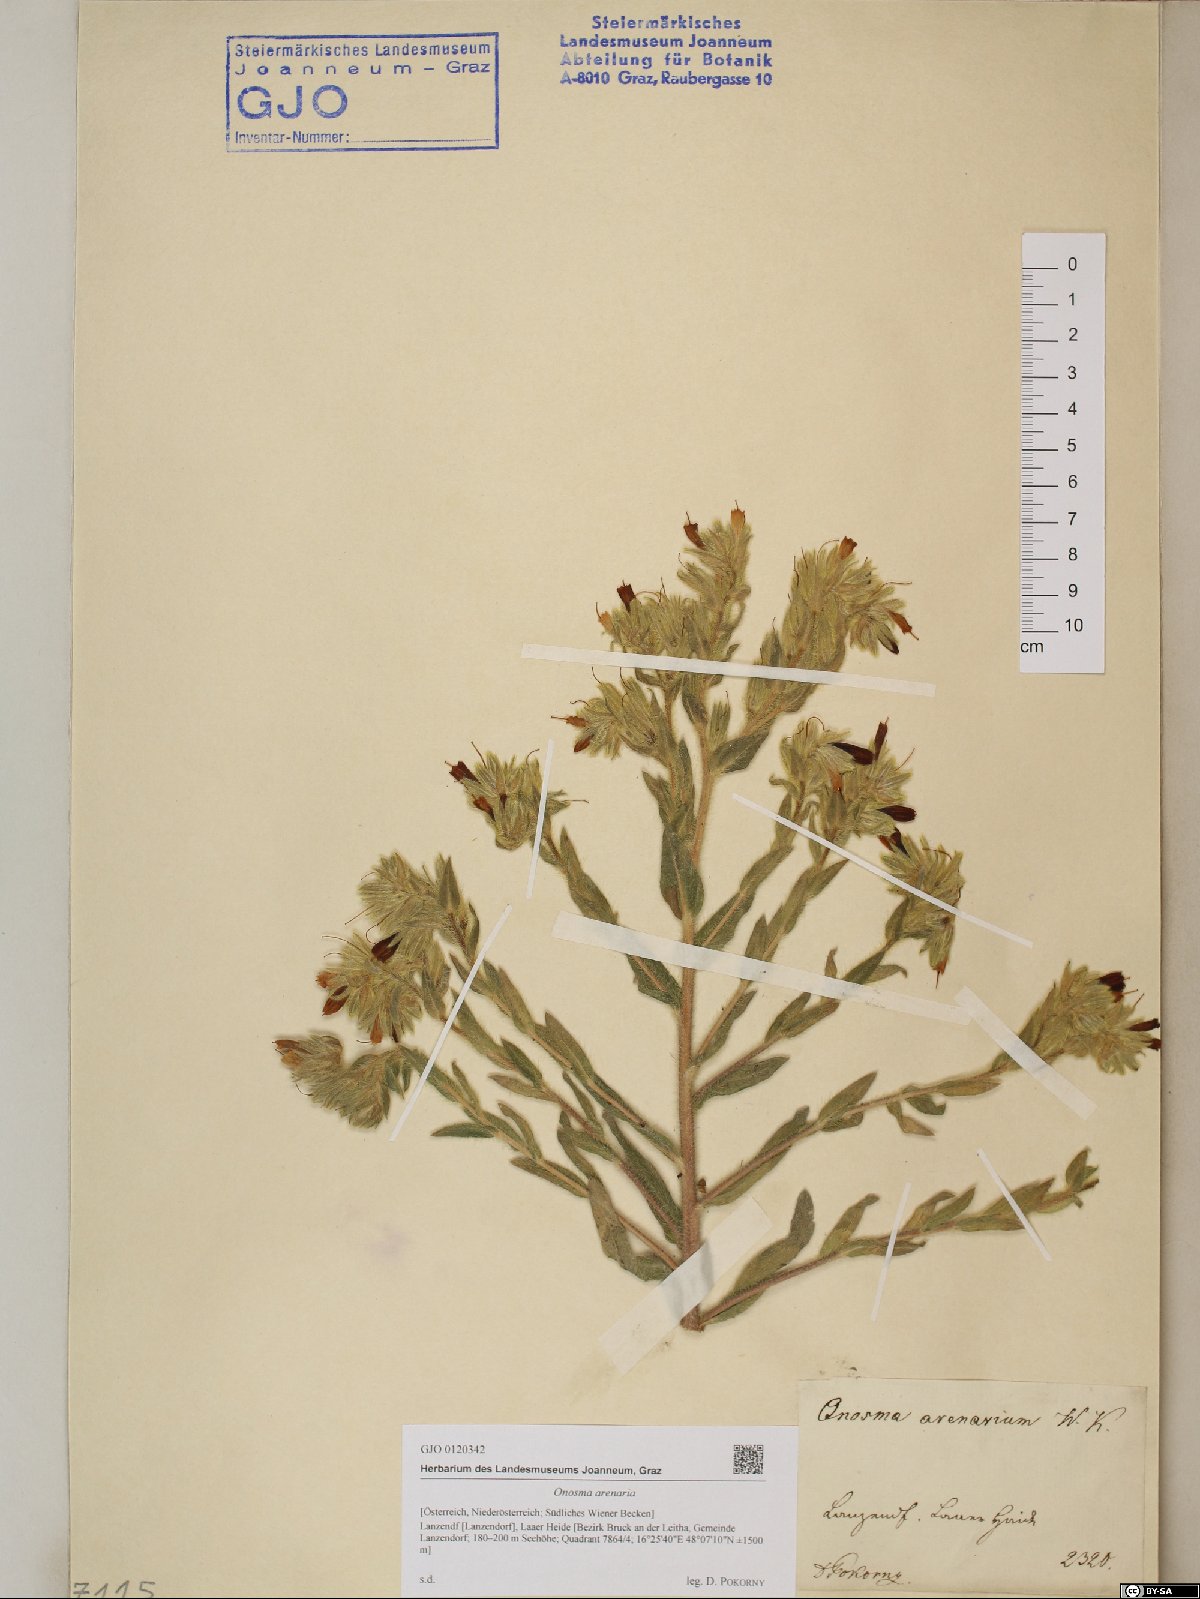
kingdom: Plantae
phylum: Tracheophyta
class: Magnoliopsida
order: Boraginales
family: Boraginaceae
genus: Onosma
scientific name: Onosma arenaria
